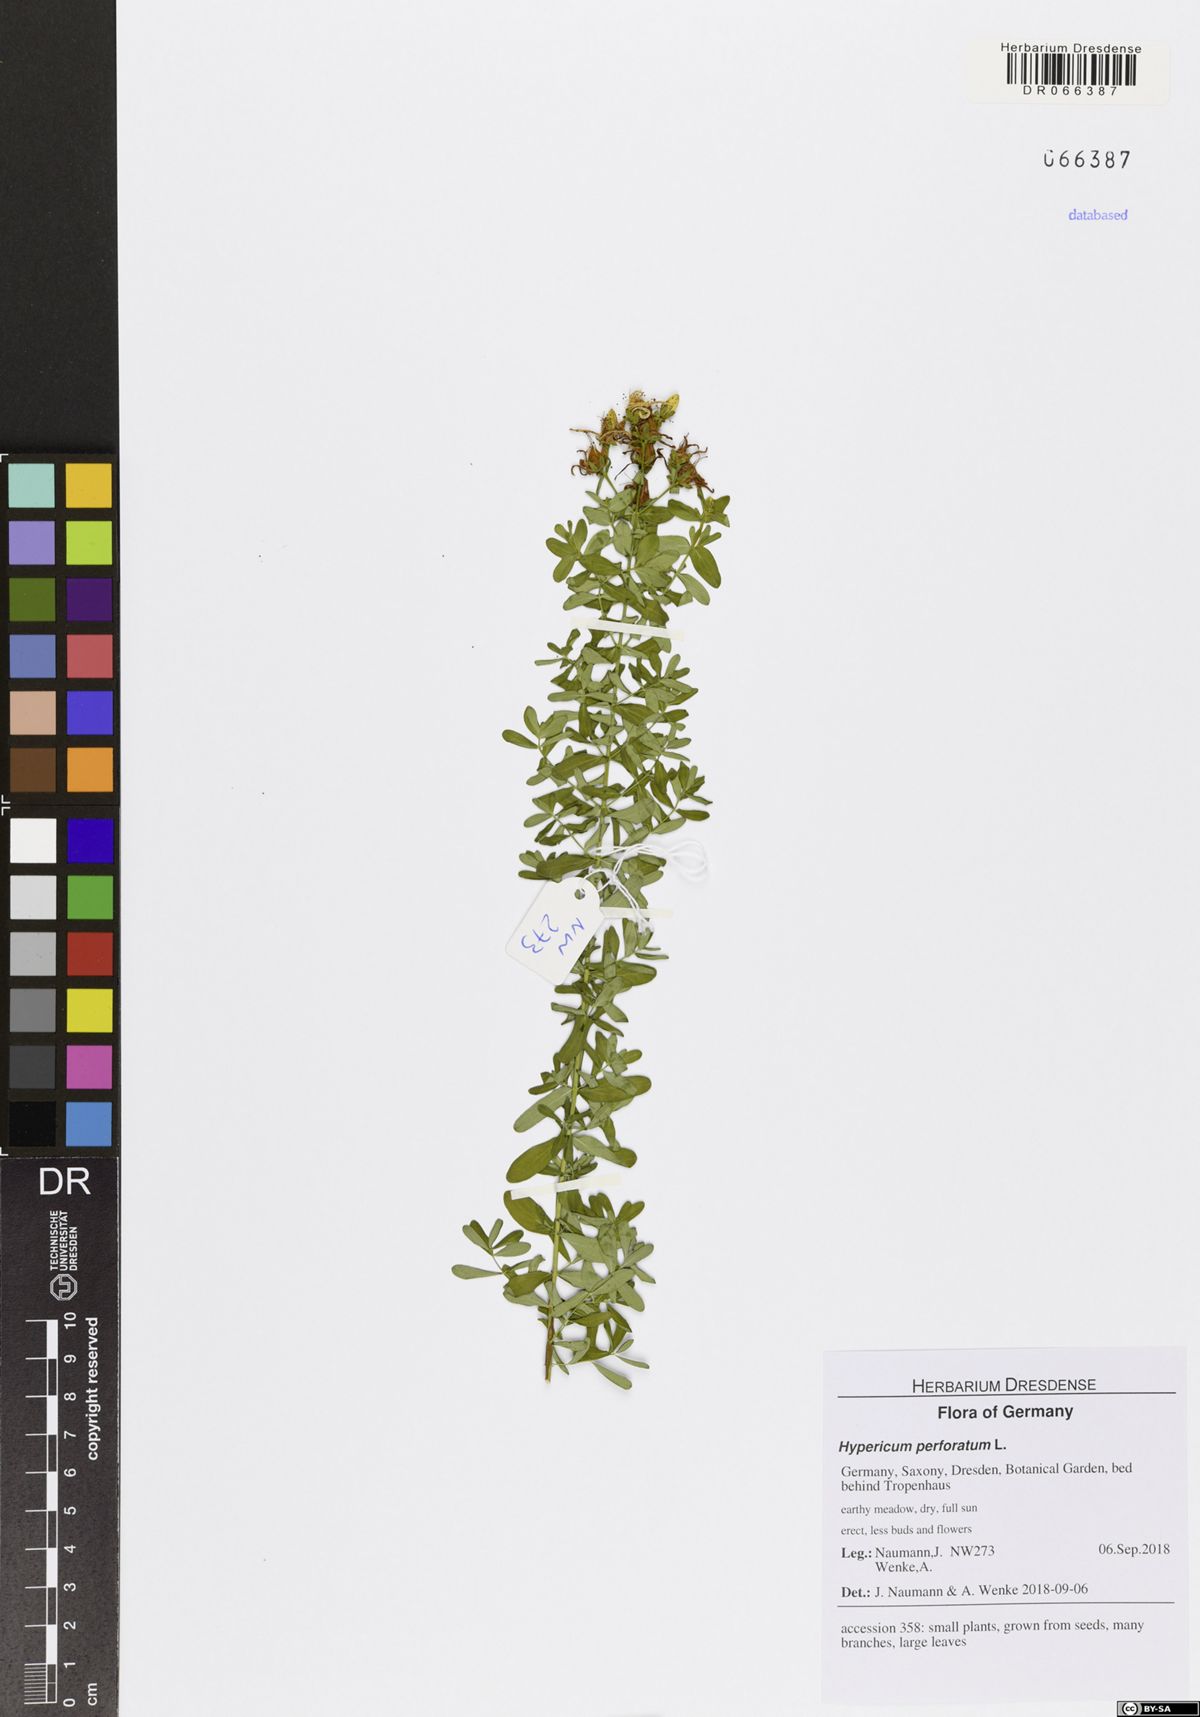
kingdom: Plantae
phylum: Tracheophyta
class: Magnoliopsida
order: Malpighiales
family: Hypericaceae
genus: Hypericum
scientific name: Hypericum perforatum
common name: Common st. johnswort
